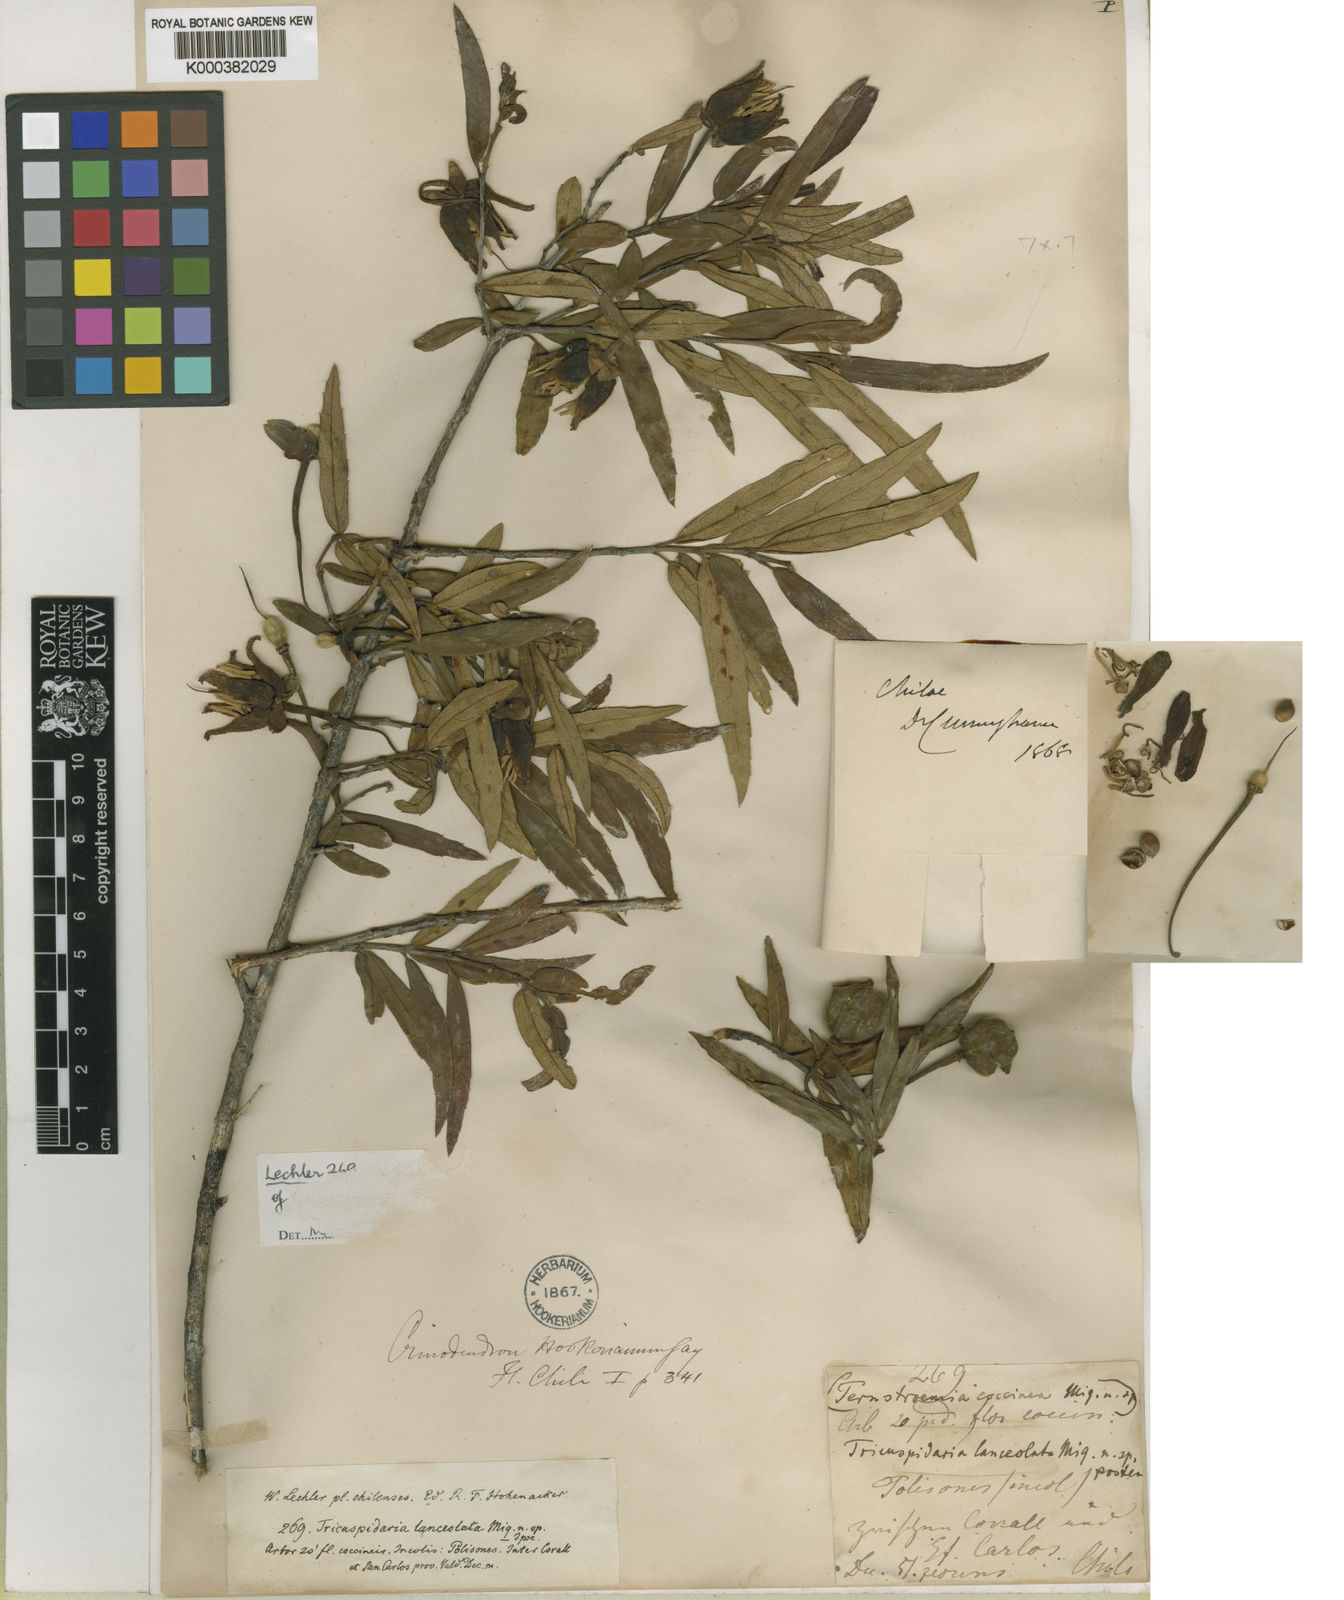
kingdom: Plantae
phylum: Tracheophyta
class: Magnoliopsida
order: Oxalidales
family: Elaeocarpaceae
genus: Crinodendron
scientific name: Crinodendron hookerianum
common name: Lanterntree
